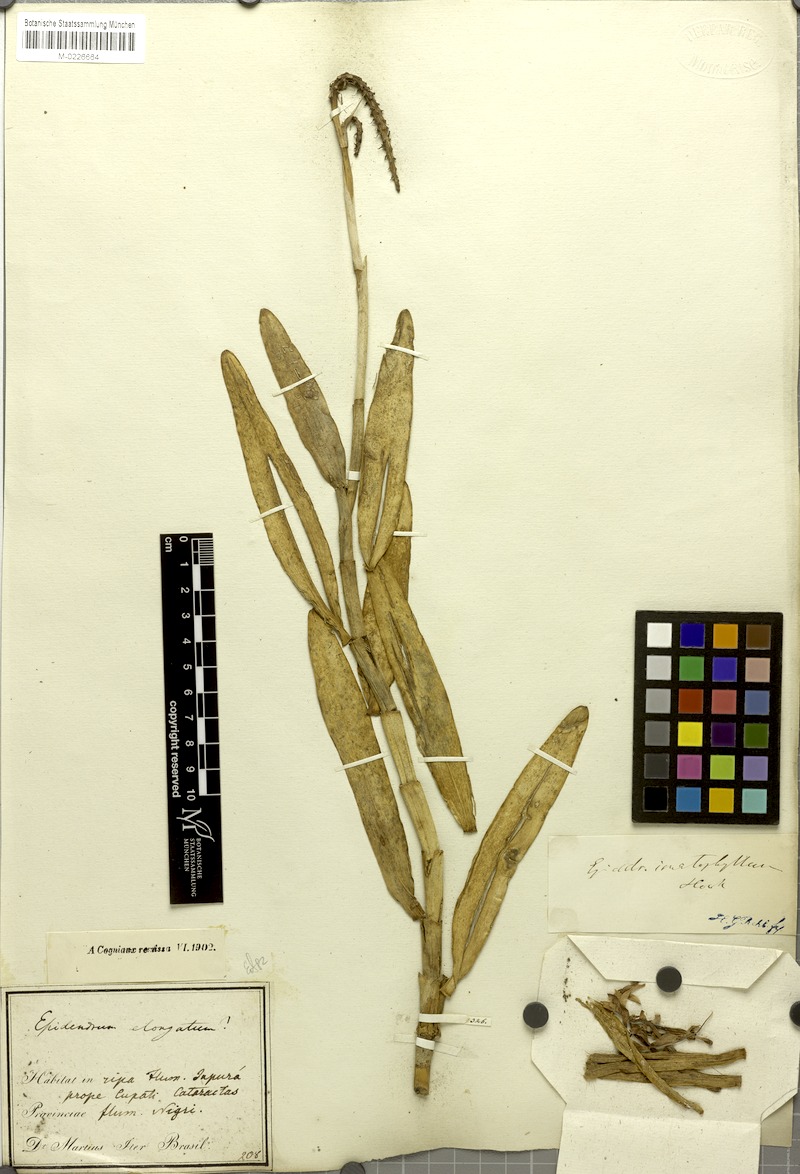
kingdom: Plantae
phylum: Tracheophyta
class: Liliopsida
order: Asparagales
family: Orchidaceae
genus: Epidendrum
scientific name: Epidendrum flexuosum
